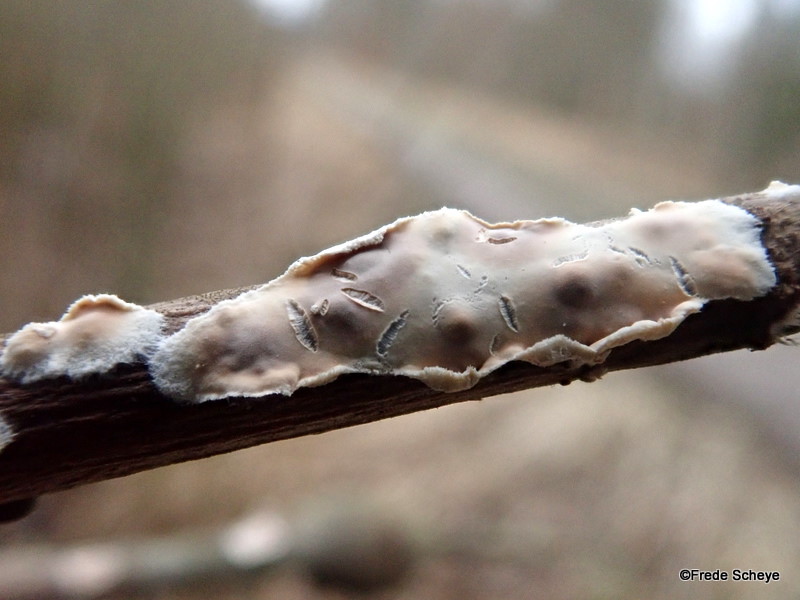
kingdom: Fungi
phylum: Basidiomycota
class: Agaricomycetes
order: Agaricales
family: Physalacriaceae
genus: Cylindrobasidium
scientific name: Cylindrobasidium evolvens
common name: sprækkehinde
